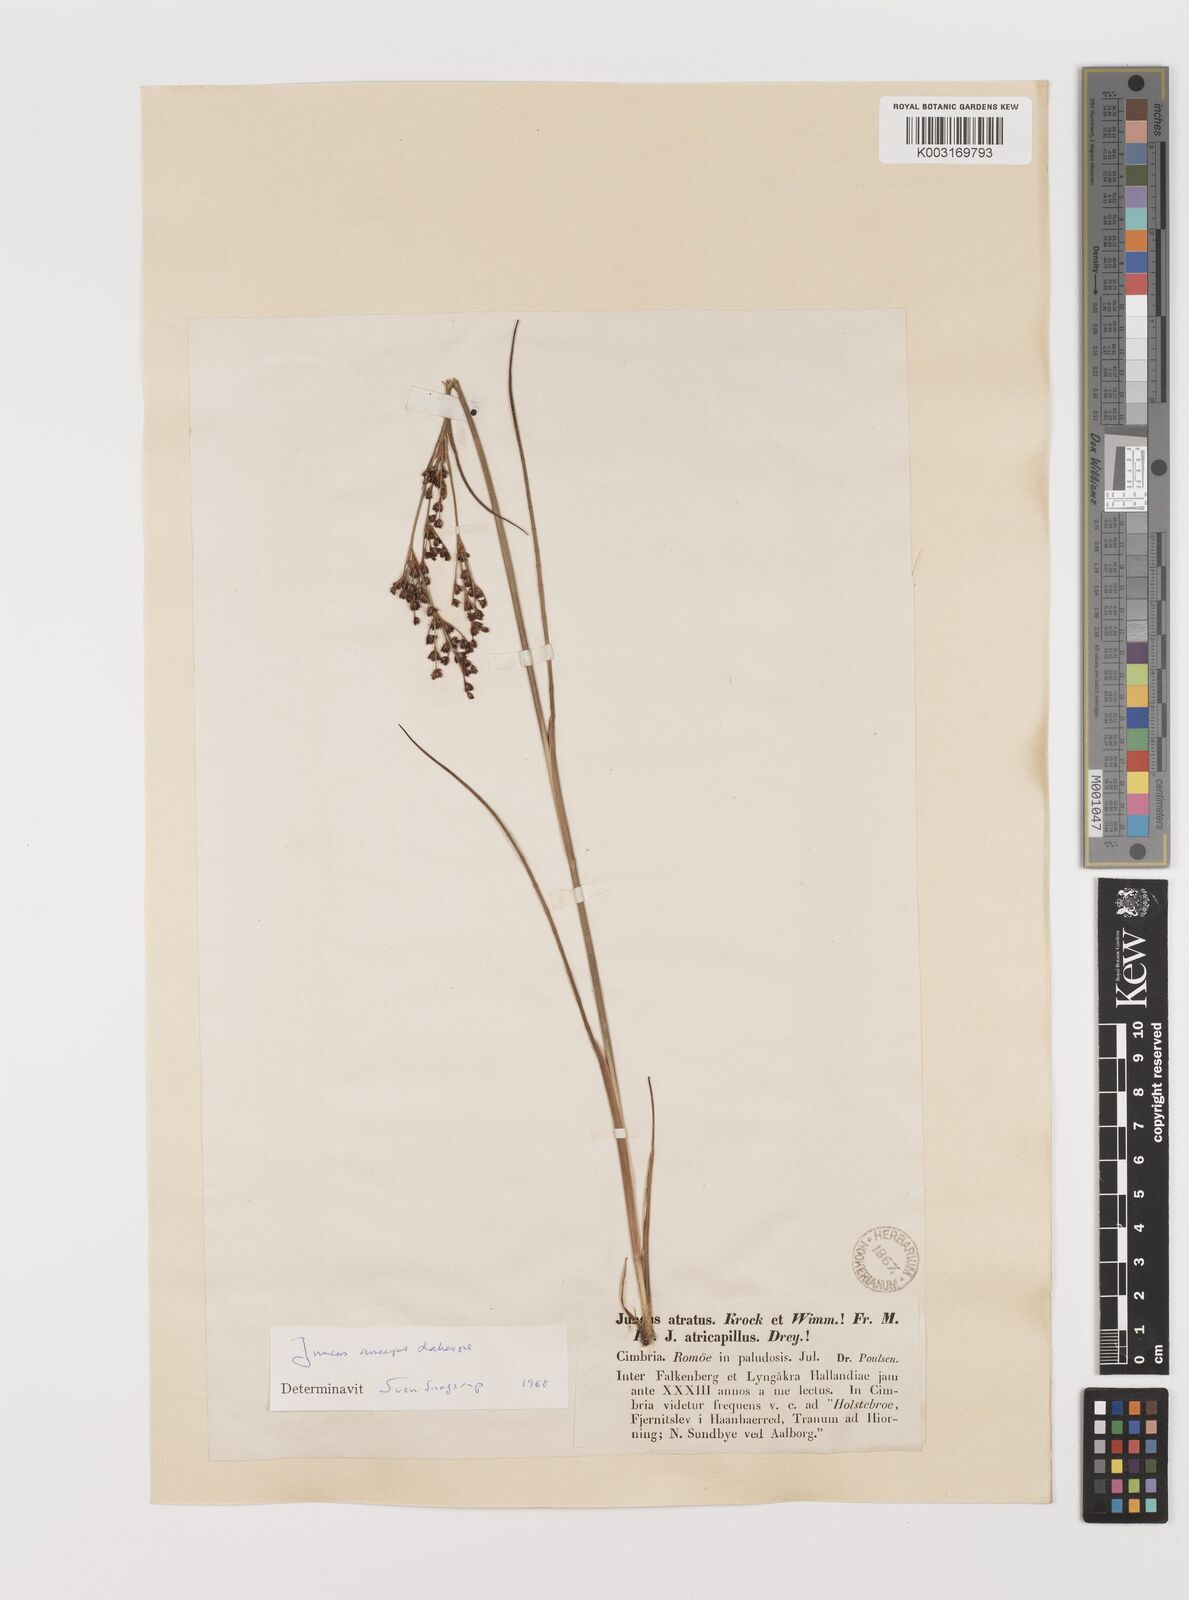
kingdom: Plantae
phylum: Tracheophyta
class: Liliopsida
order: Poales
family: Juncaceae
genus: Juncus
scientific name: Juncus anceps
